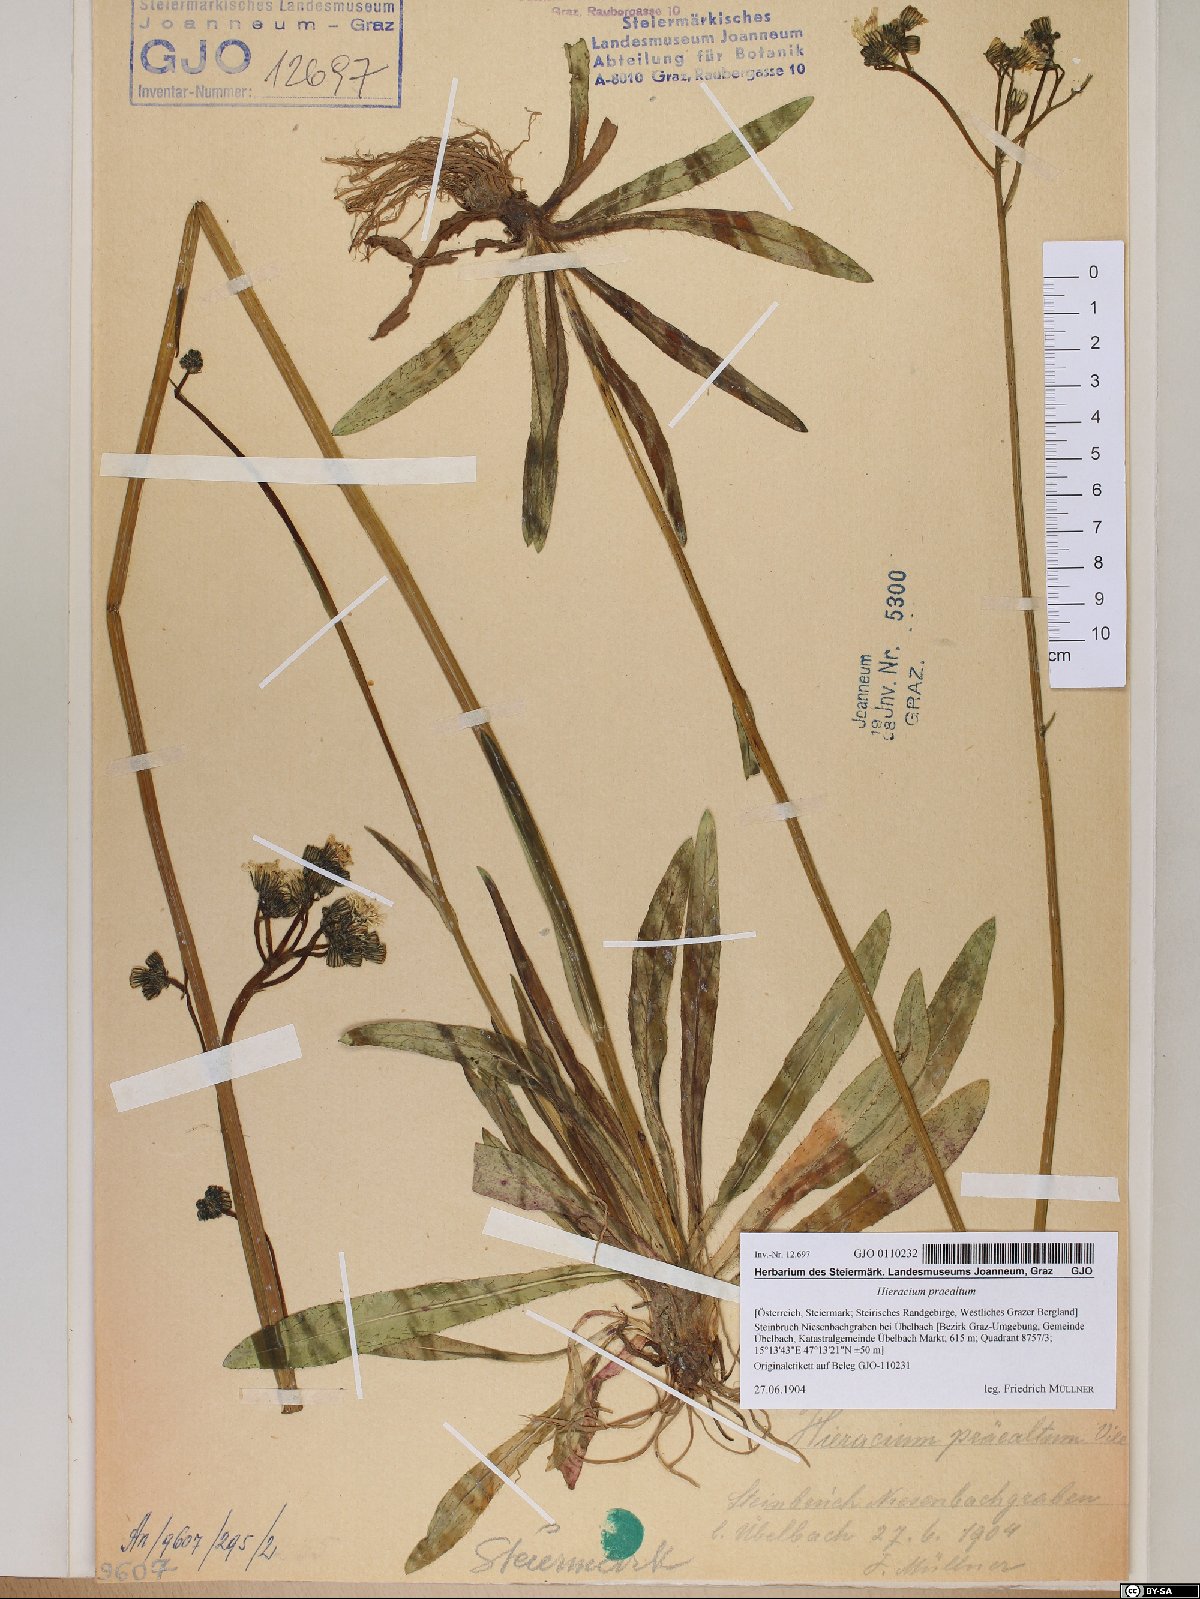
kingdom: Plantae
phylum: Tracheophyta
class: Magnoliopsida
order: Asterales
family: Asteraceae
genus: Pilosella
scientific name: Pilosella piloselloides
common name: Glaucous king-devil
